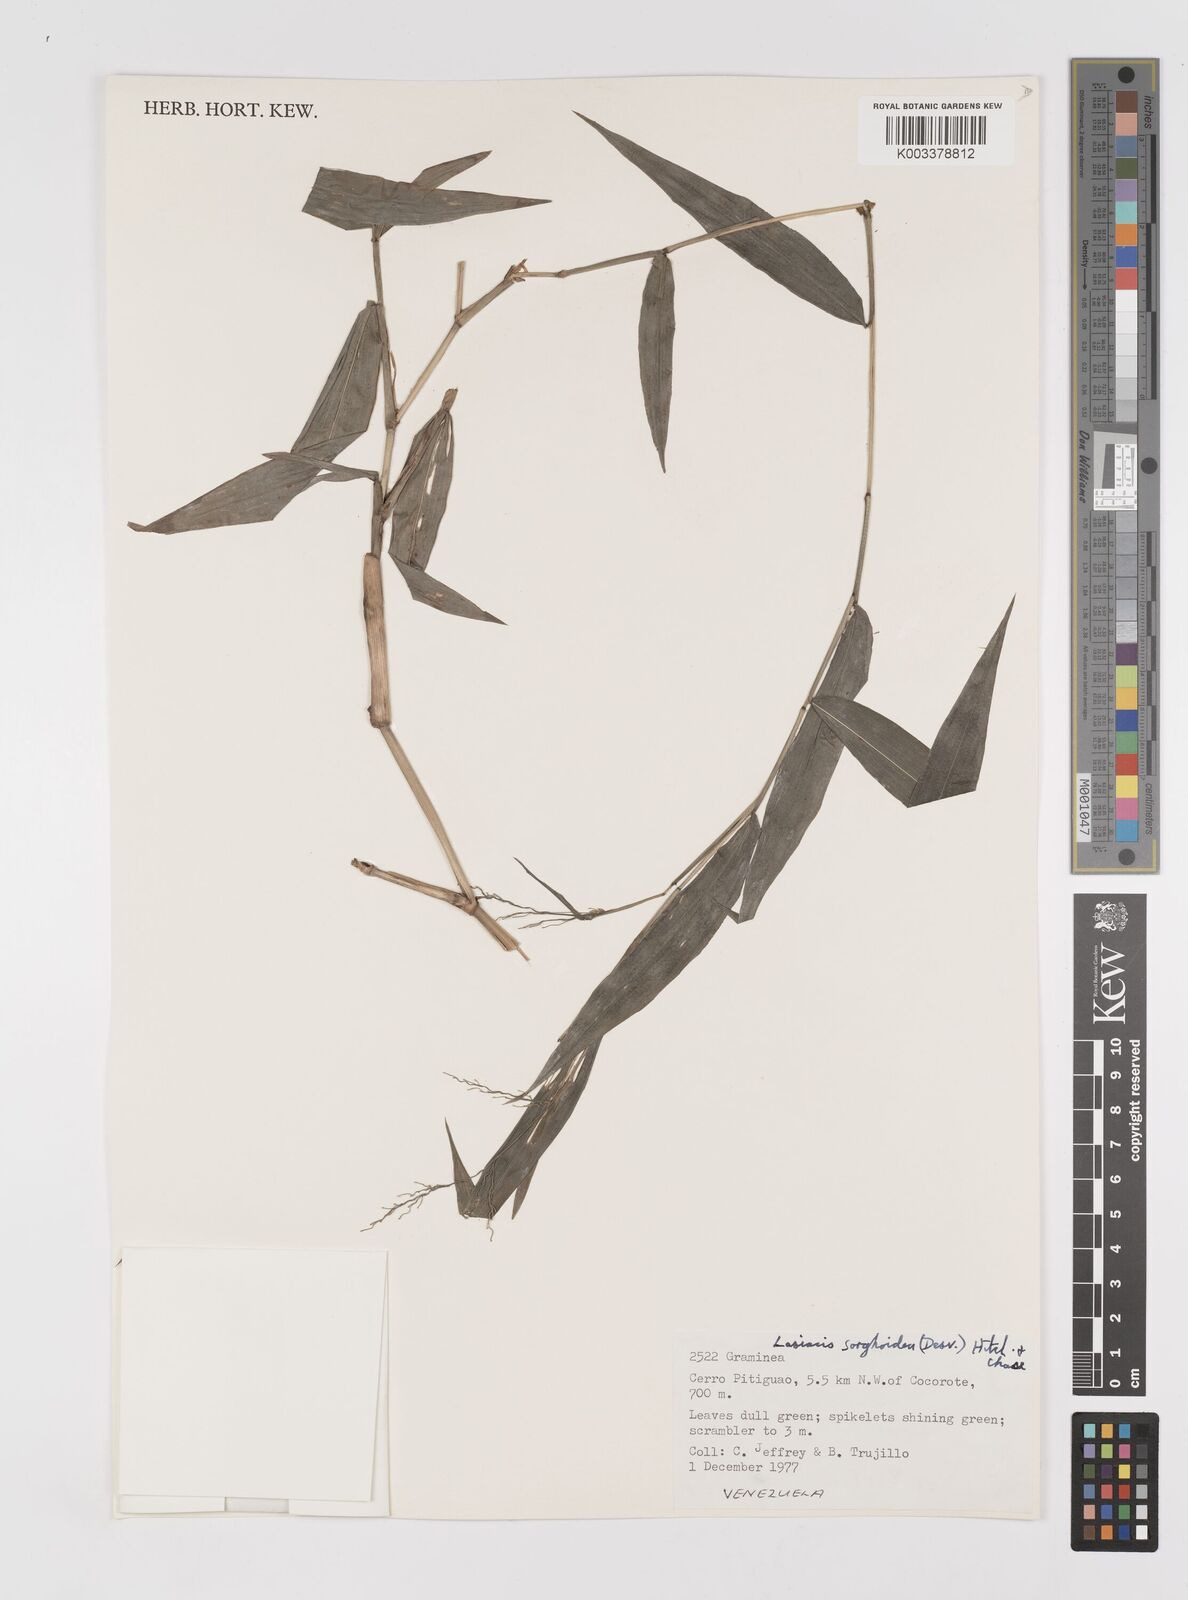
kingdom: Plantae
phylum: Tracheophyta
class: Liliopsida
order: Poales
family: Poaceae
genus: Lasiacis
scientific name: Lasiacis
